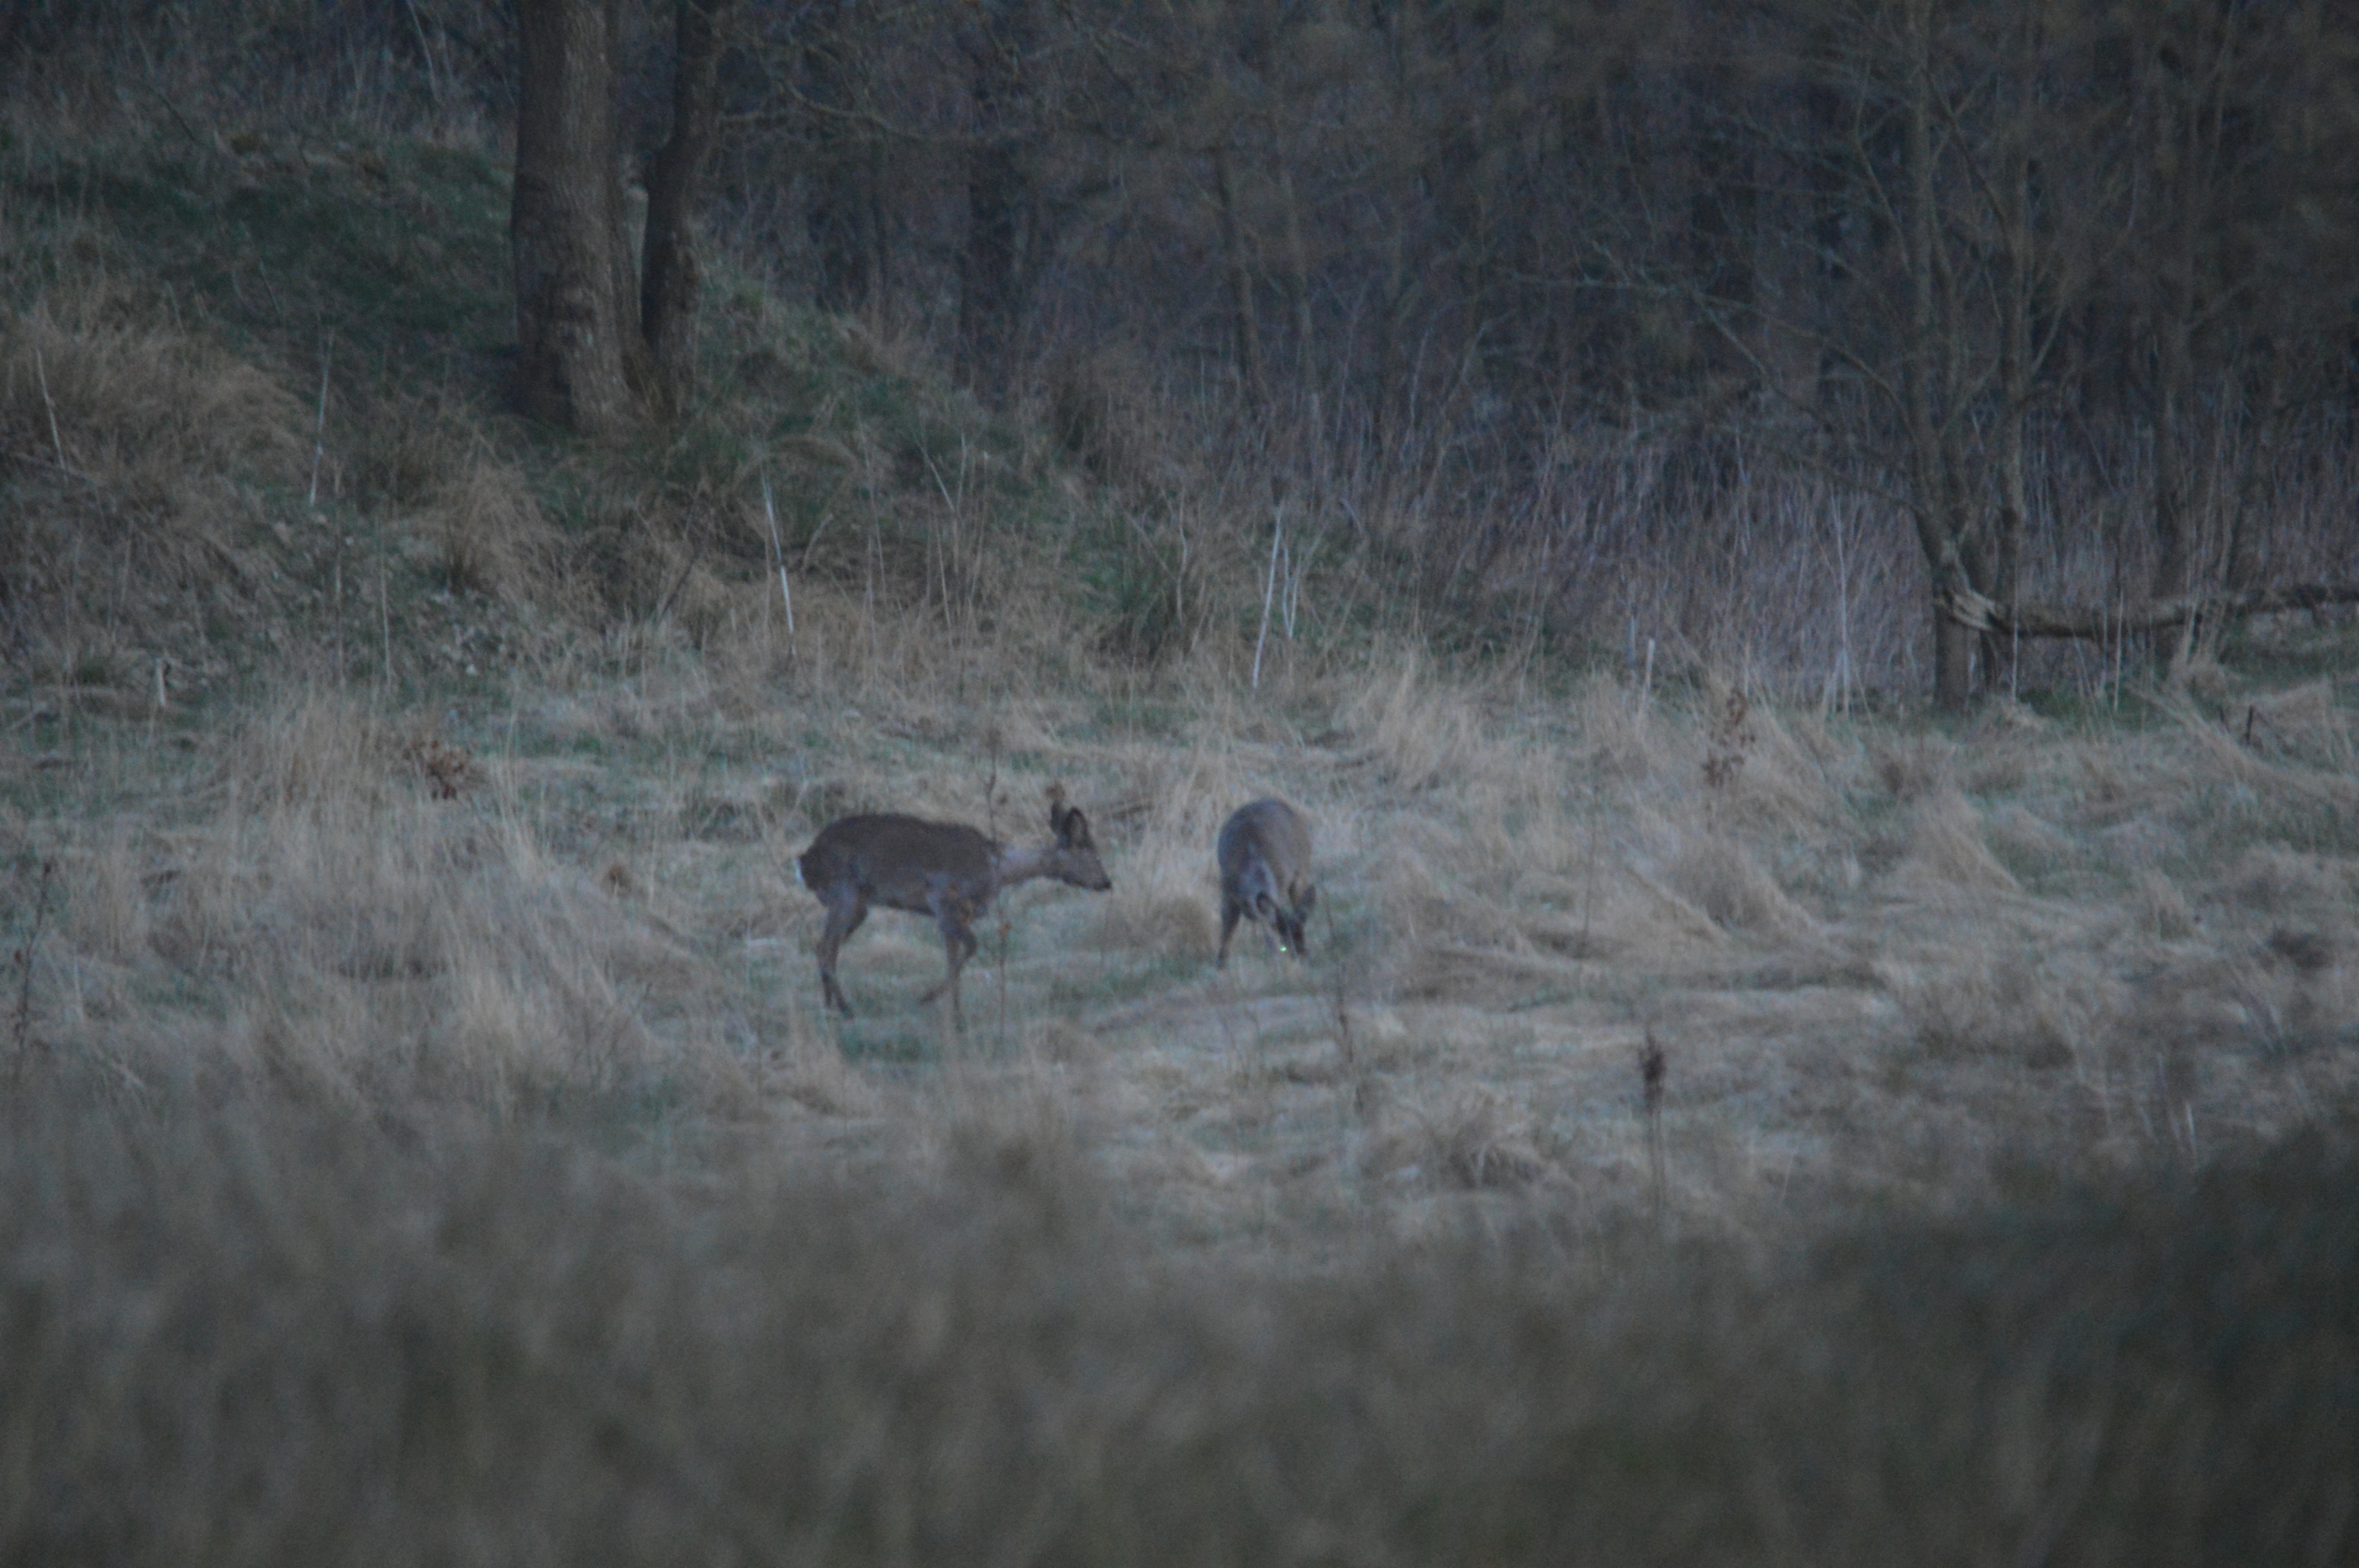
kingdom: Animalia
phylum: Chordata
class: Mammalia
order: Artiodactyla
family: Cervidae
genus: Capreolus
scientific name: Capreolus capreolus
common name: Rådyr
